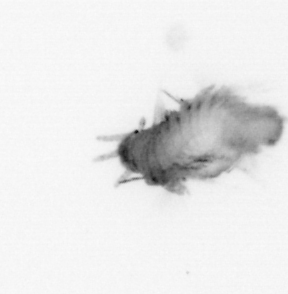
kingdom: Animalia
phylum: Annelida
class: Polychaeta
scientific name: Polychaeta
